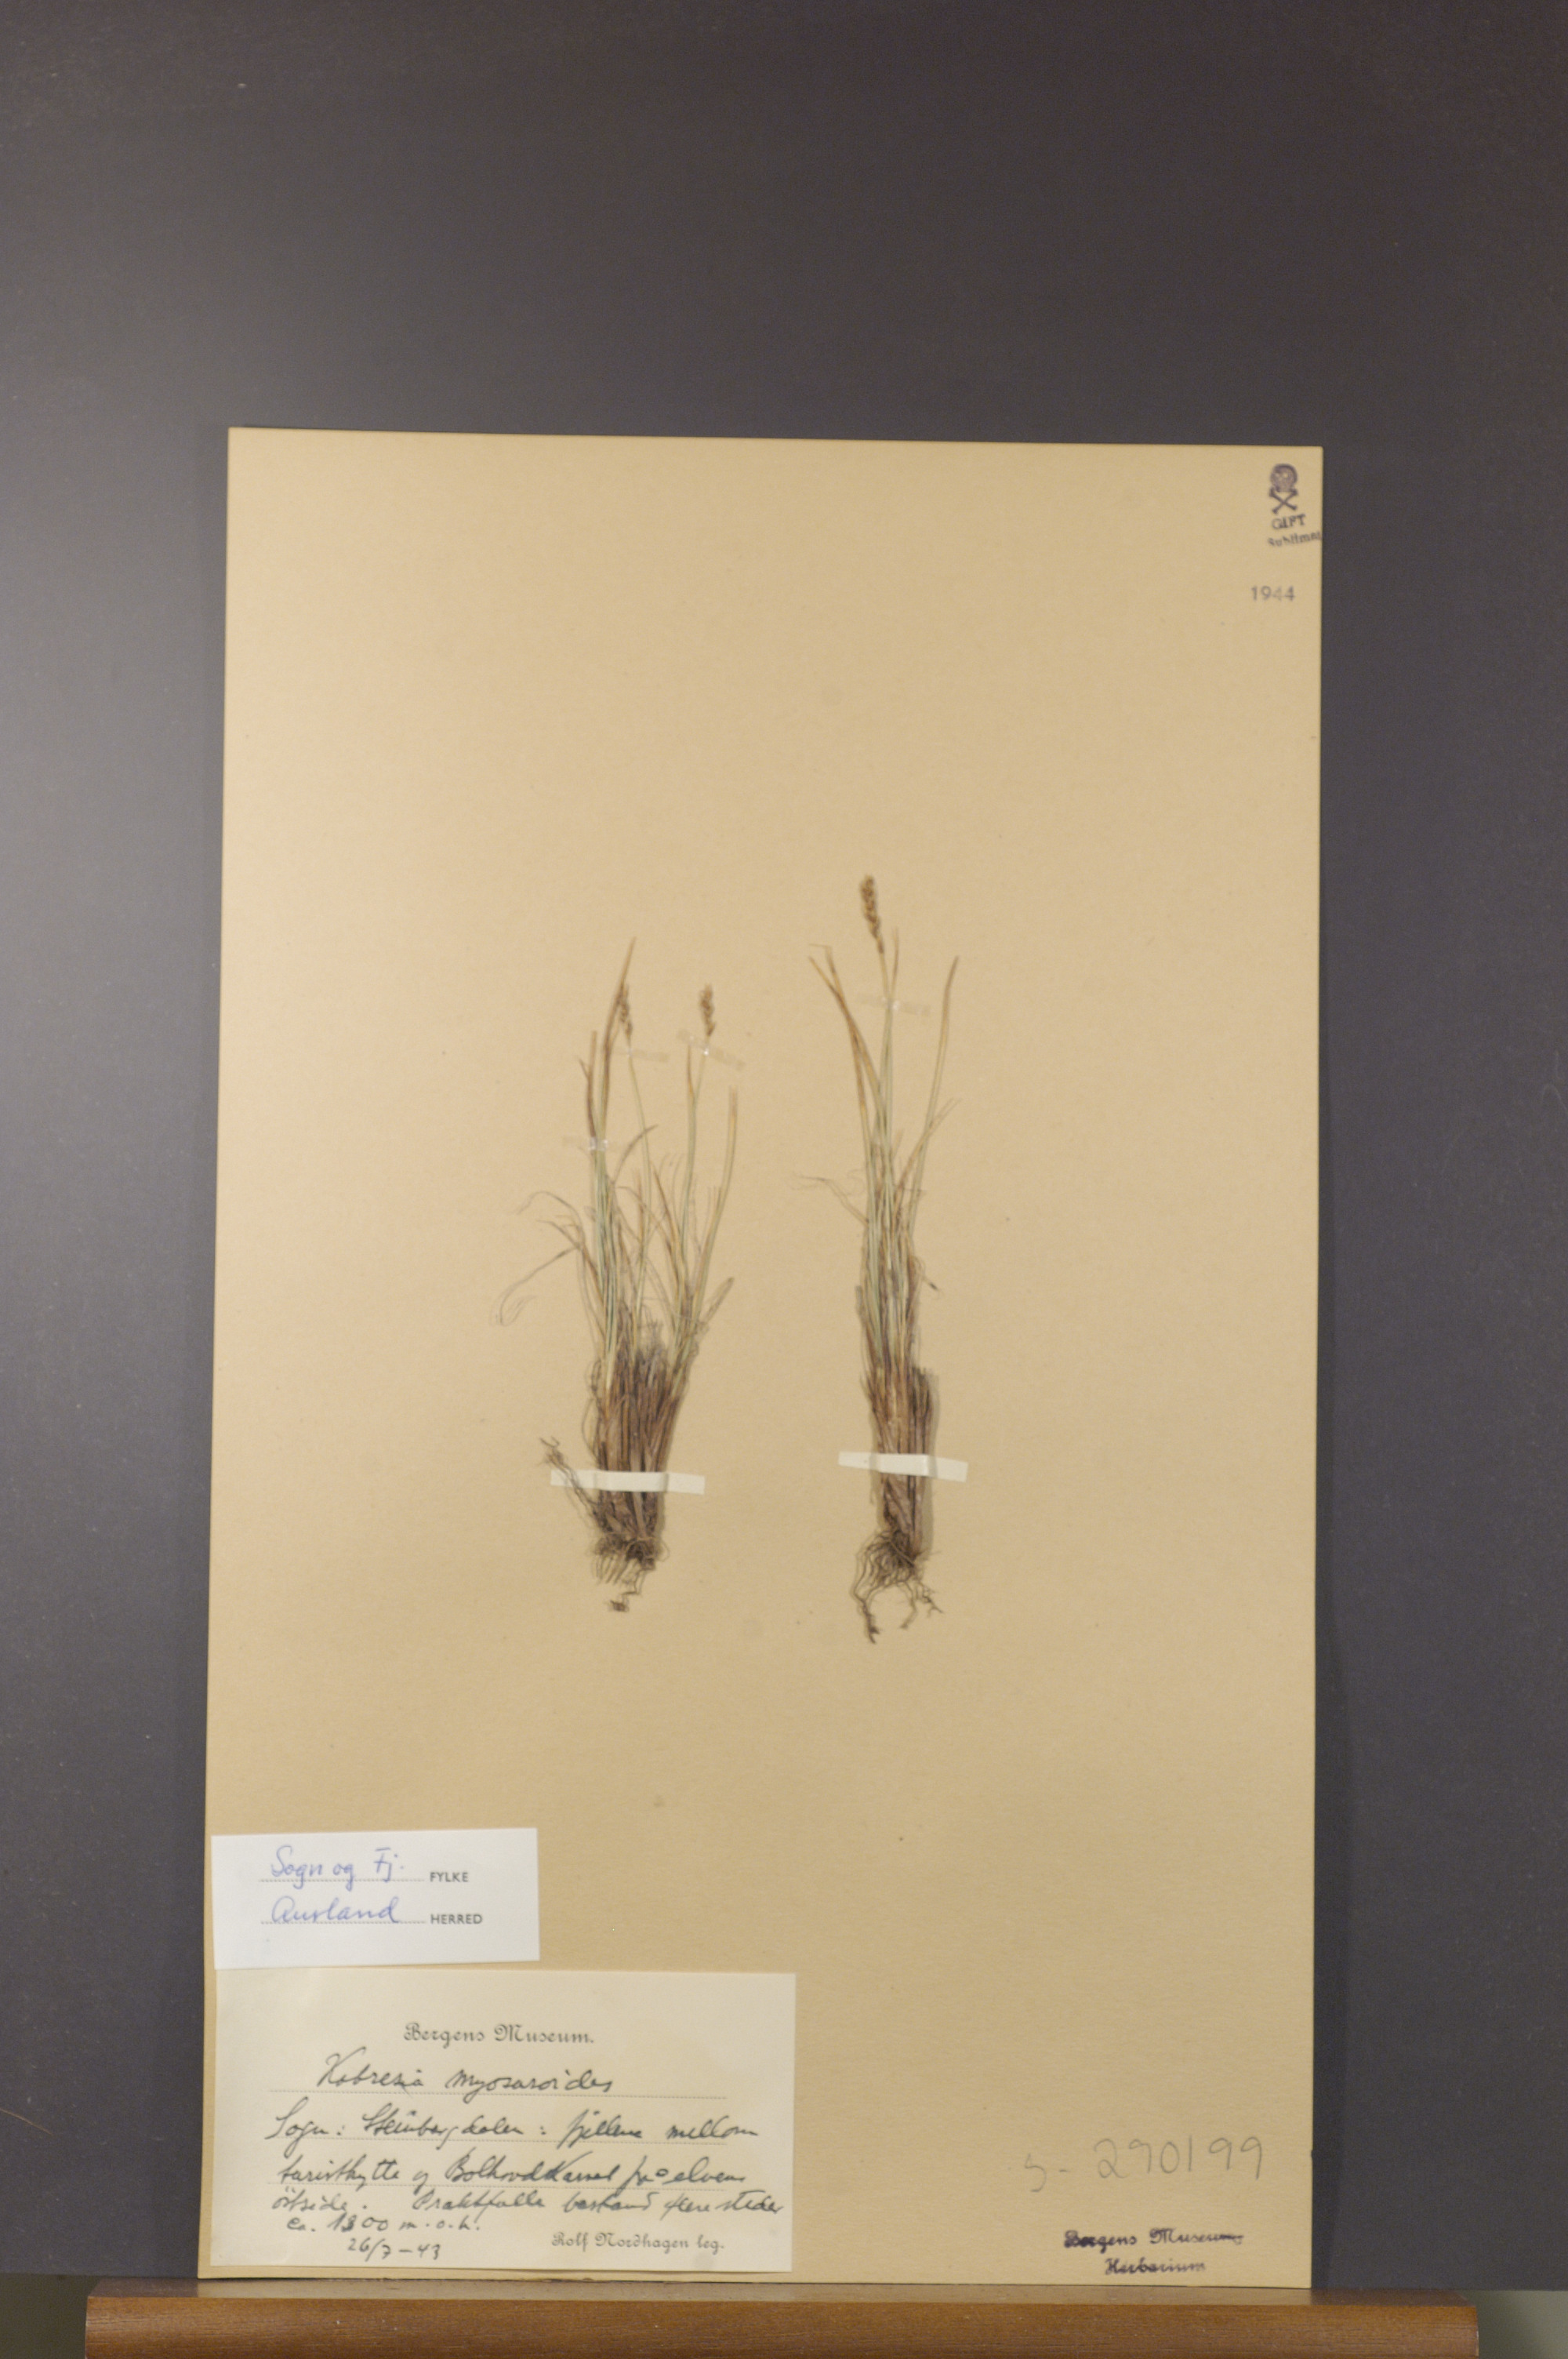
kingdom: Plantae
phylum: Tracheophyta
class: Liliopsida
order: Poales
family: Cyperaceae
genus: Carex
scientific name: Carex myosuroides
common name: Bellard's bog sedge
